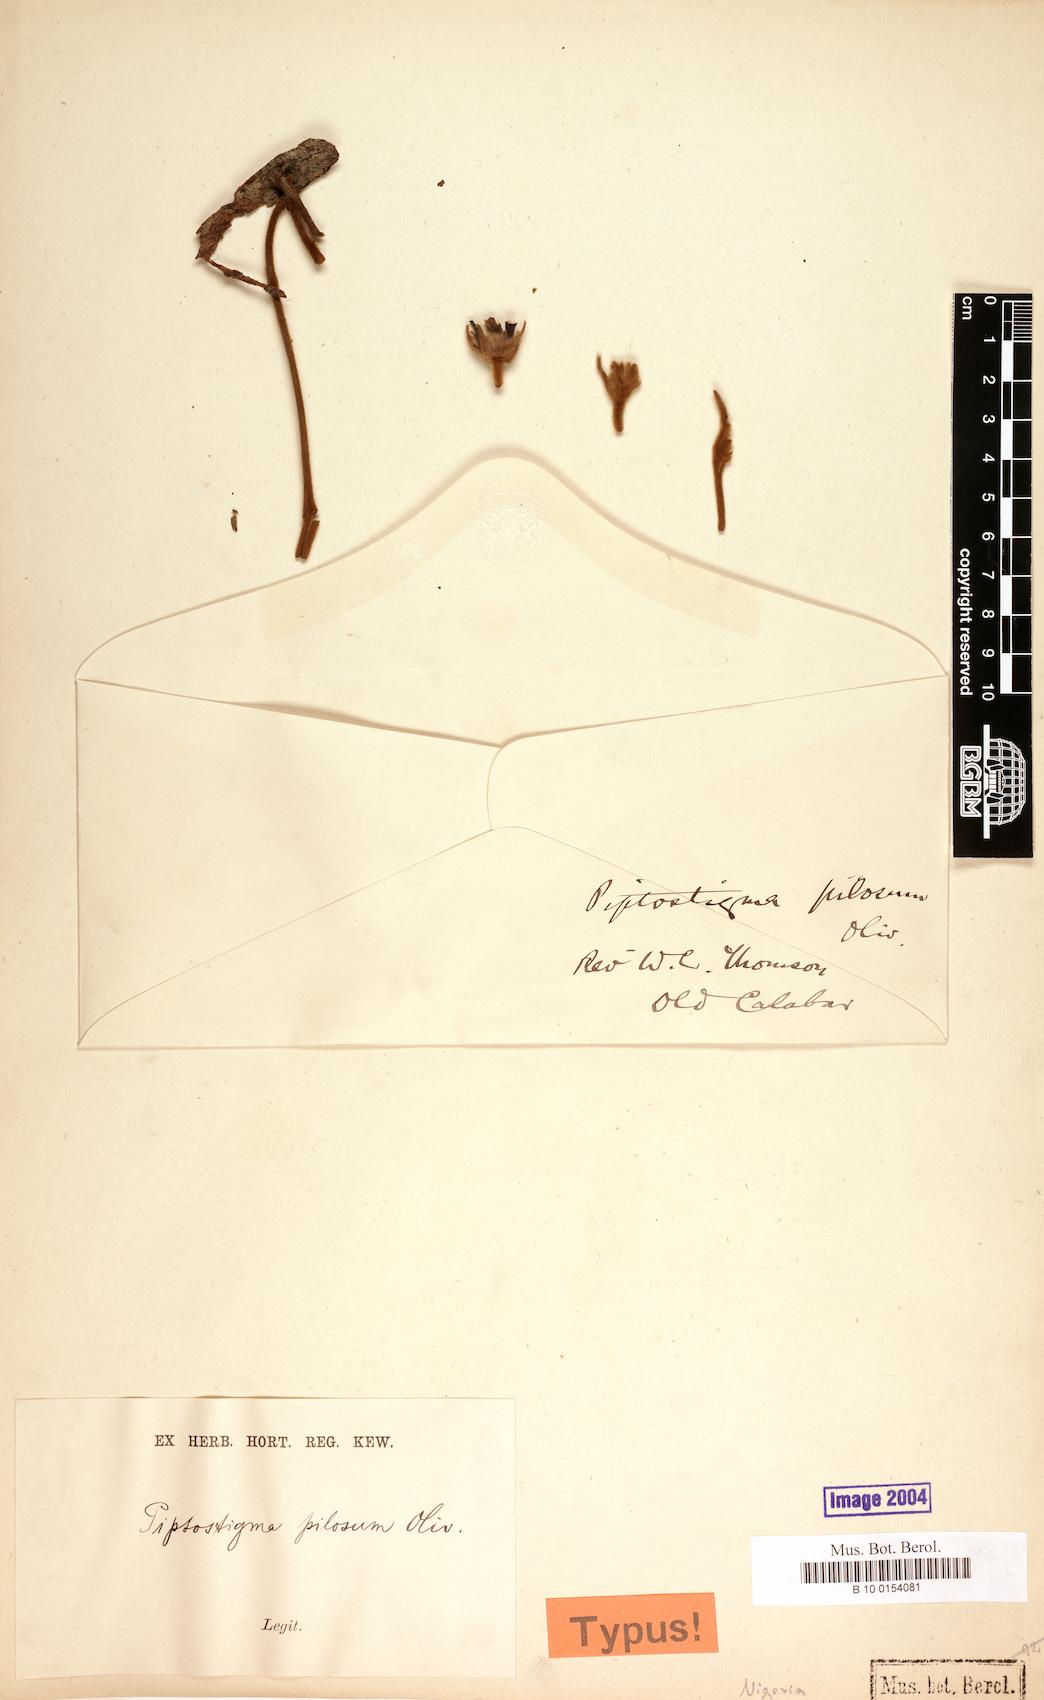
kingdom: Plantae
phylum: Tracheophyta
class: Magnoliopsida
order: Magnoliales
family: Annonaceae
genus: Piptostigma
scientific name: Piptostigma pilosum
